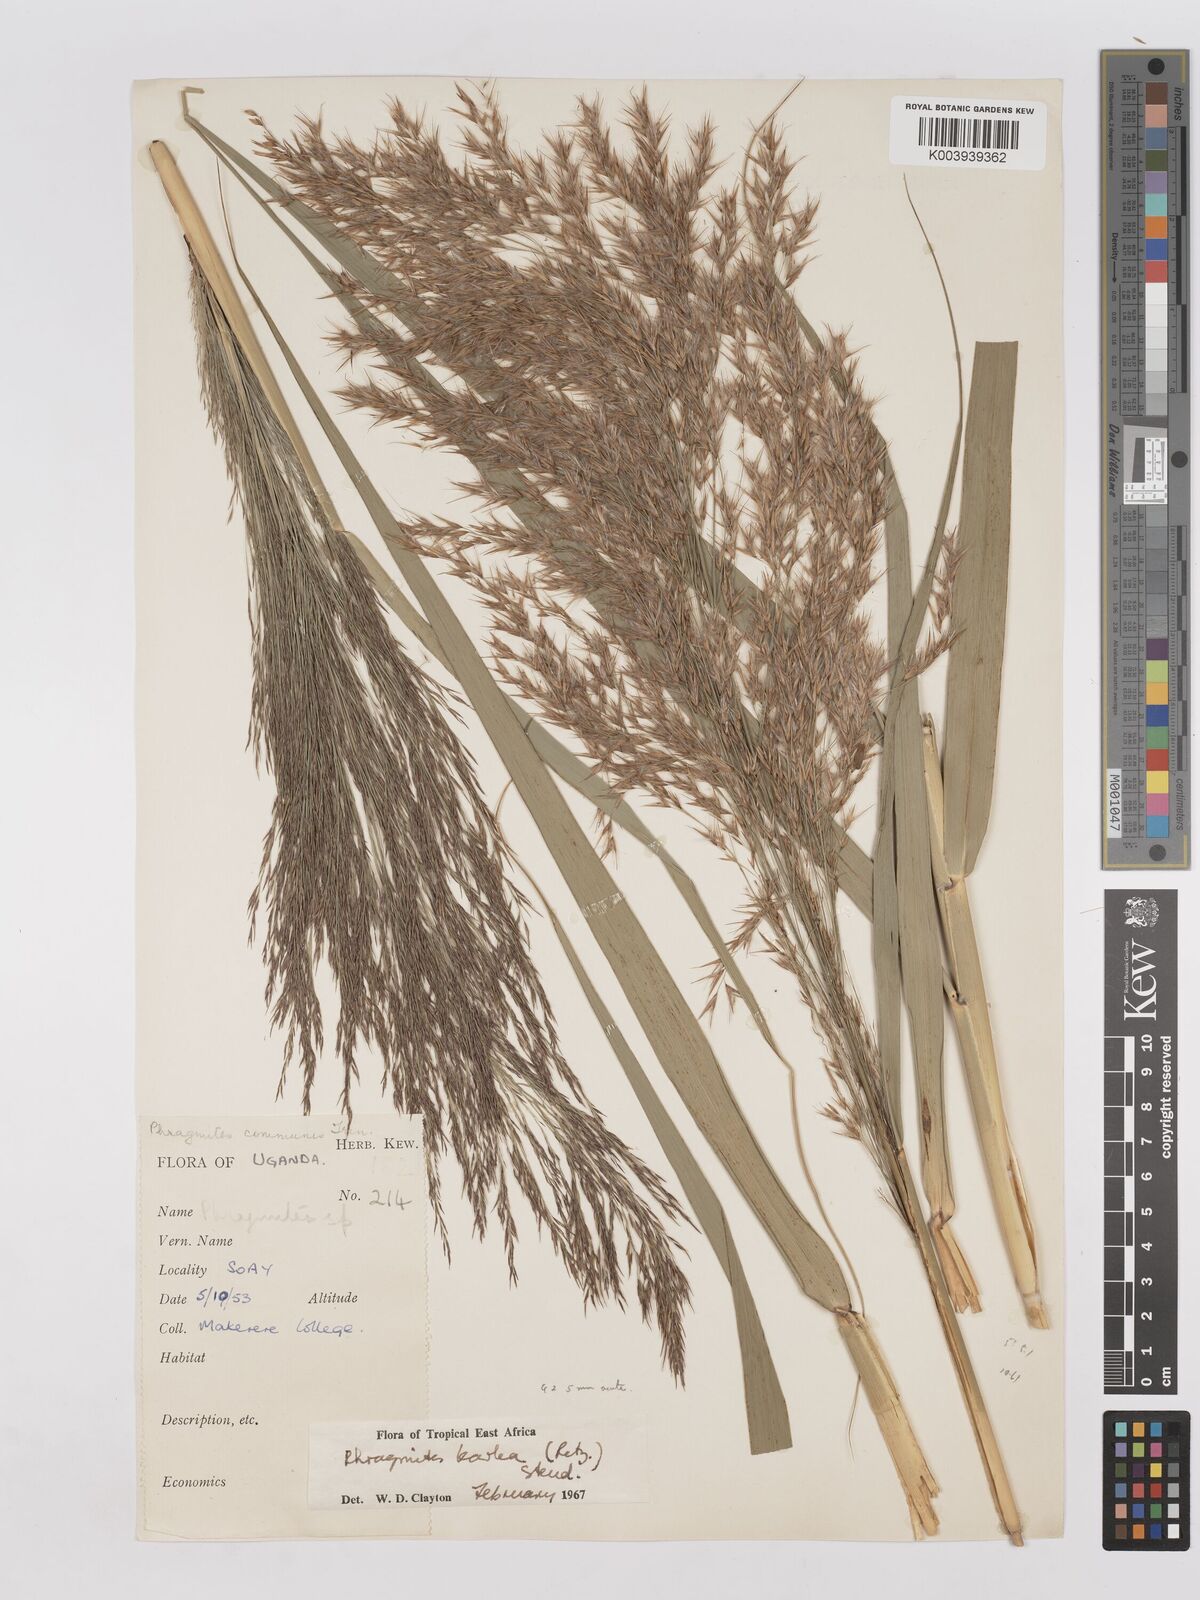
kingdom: Plantae
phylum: Tracheophyta
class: Liliopsida
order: Poales
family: Poaceae
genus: Phragmites
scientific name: Phragmites karka
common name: Tropical reed
